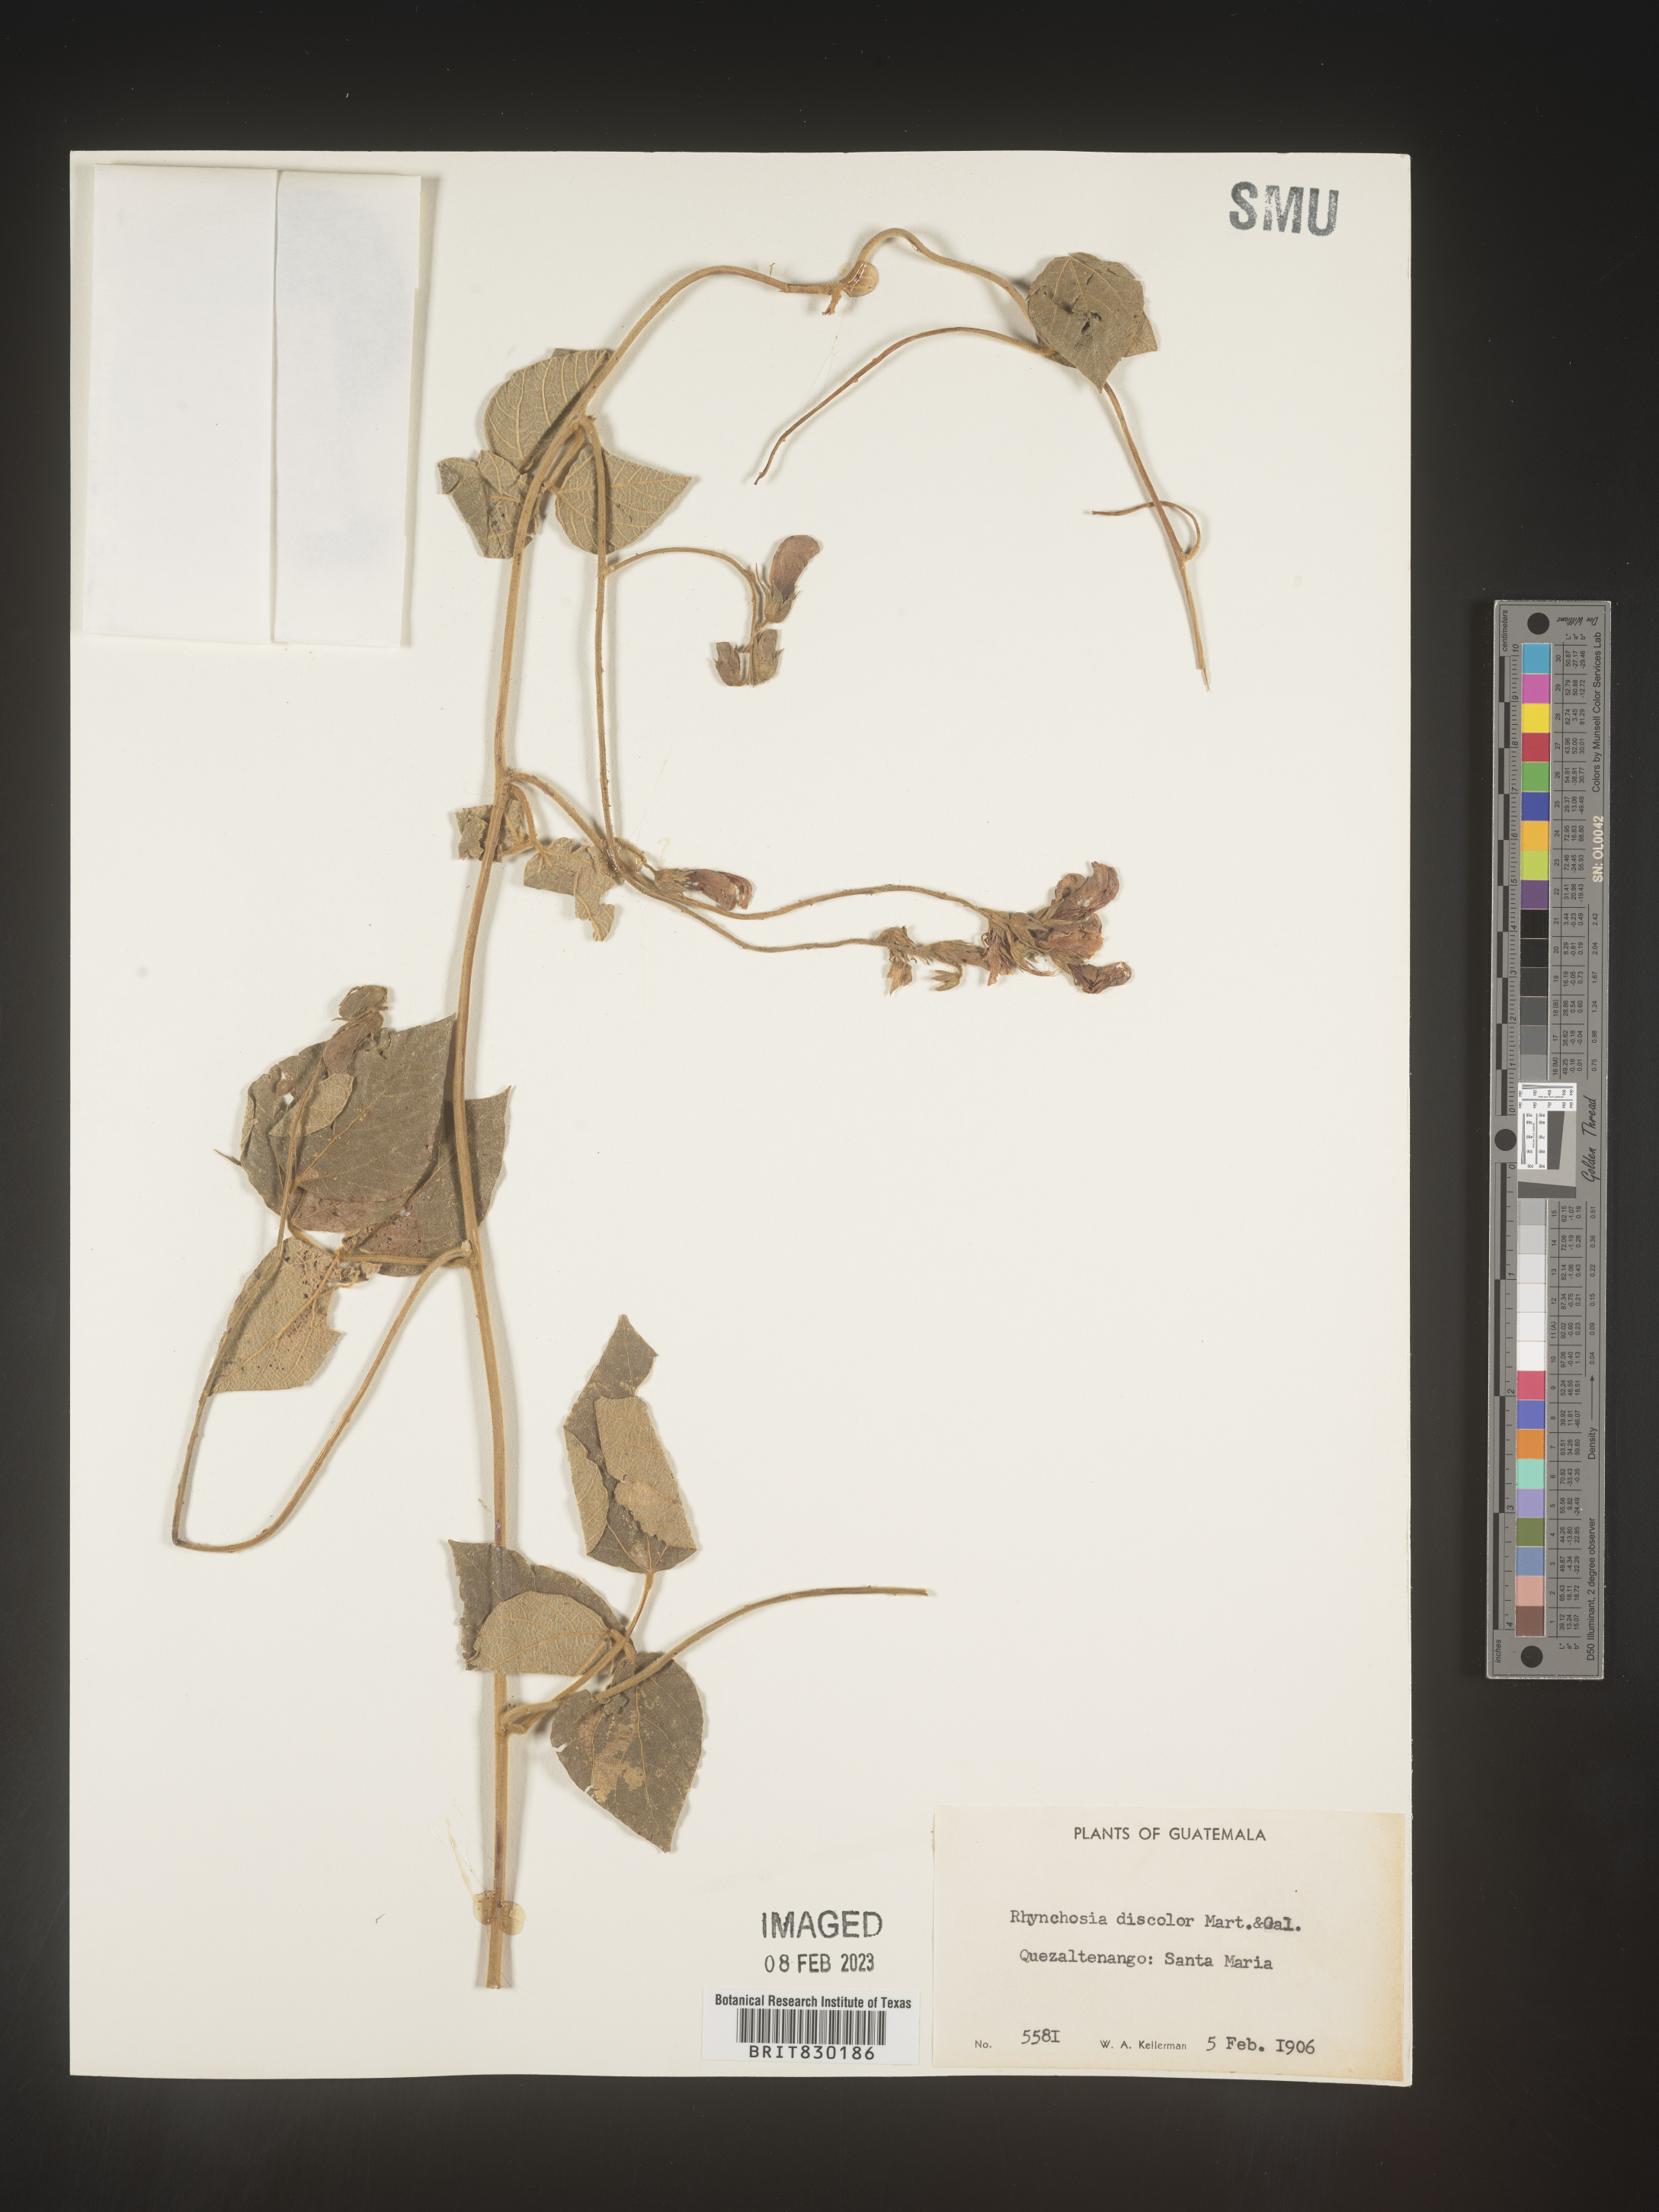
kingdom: Plantae
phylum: Tracheophyta
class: Magnoliopsida
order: Fabales
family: Fabaceae
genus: Rhynchosia
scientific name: Rhynchosia
